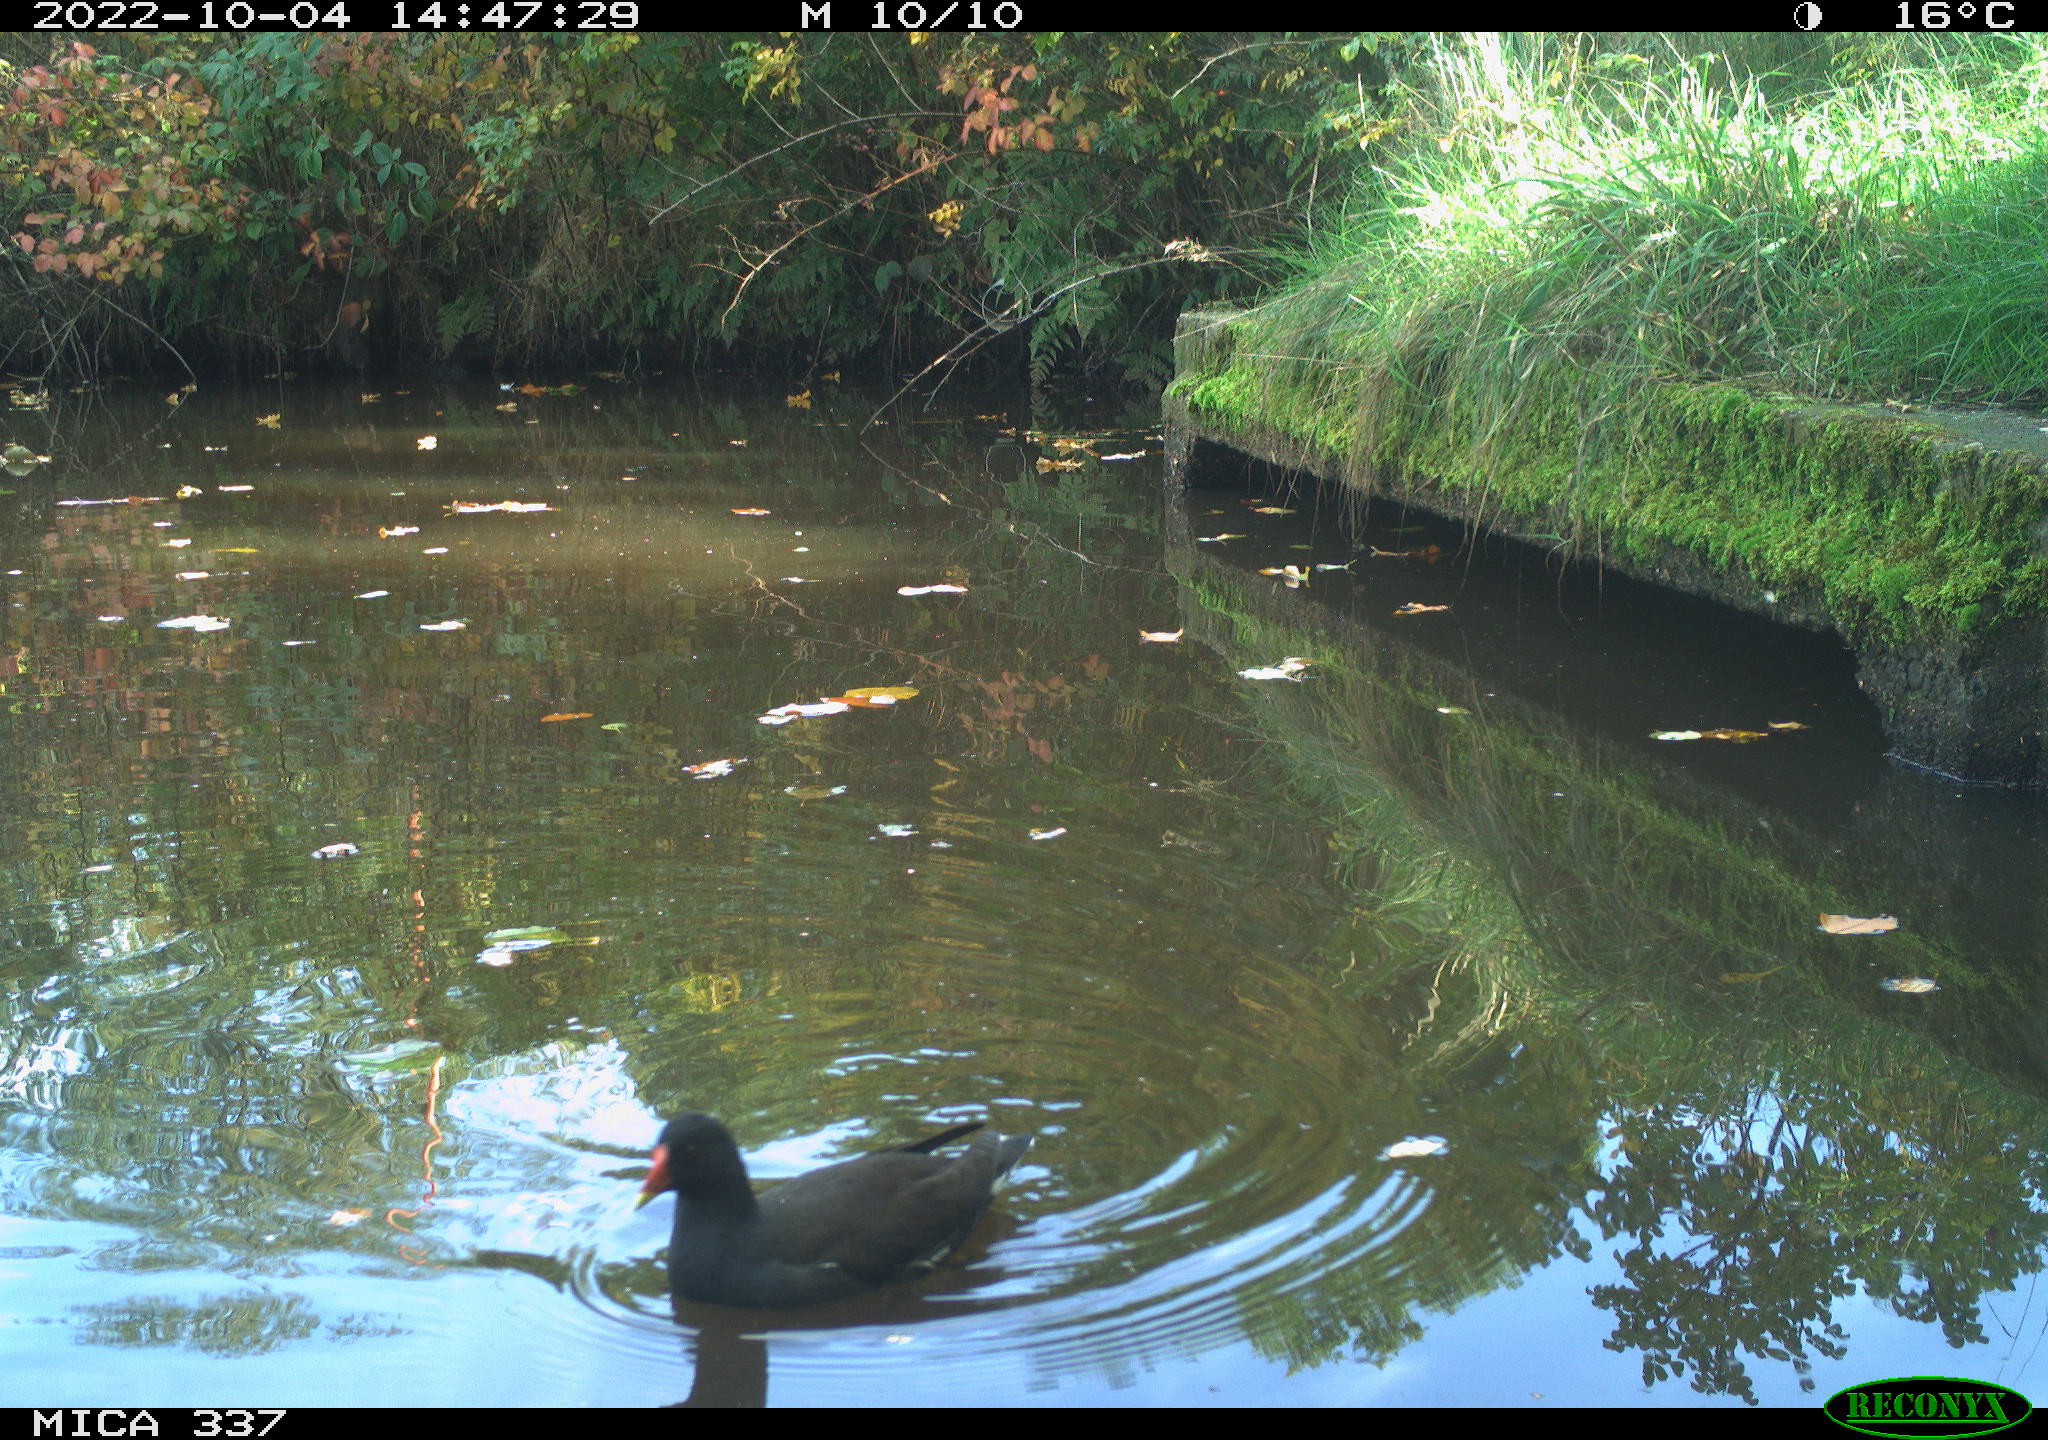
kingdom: Animalia
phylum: Chordata
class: Aves
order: Gruiformes
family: Rallidae
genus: Gallinula
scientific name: Gallinula chloropus
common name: Common moorhen
